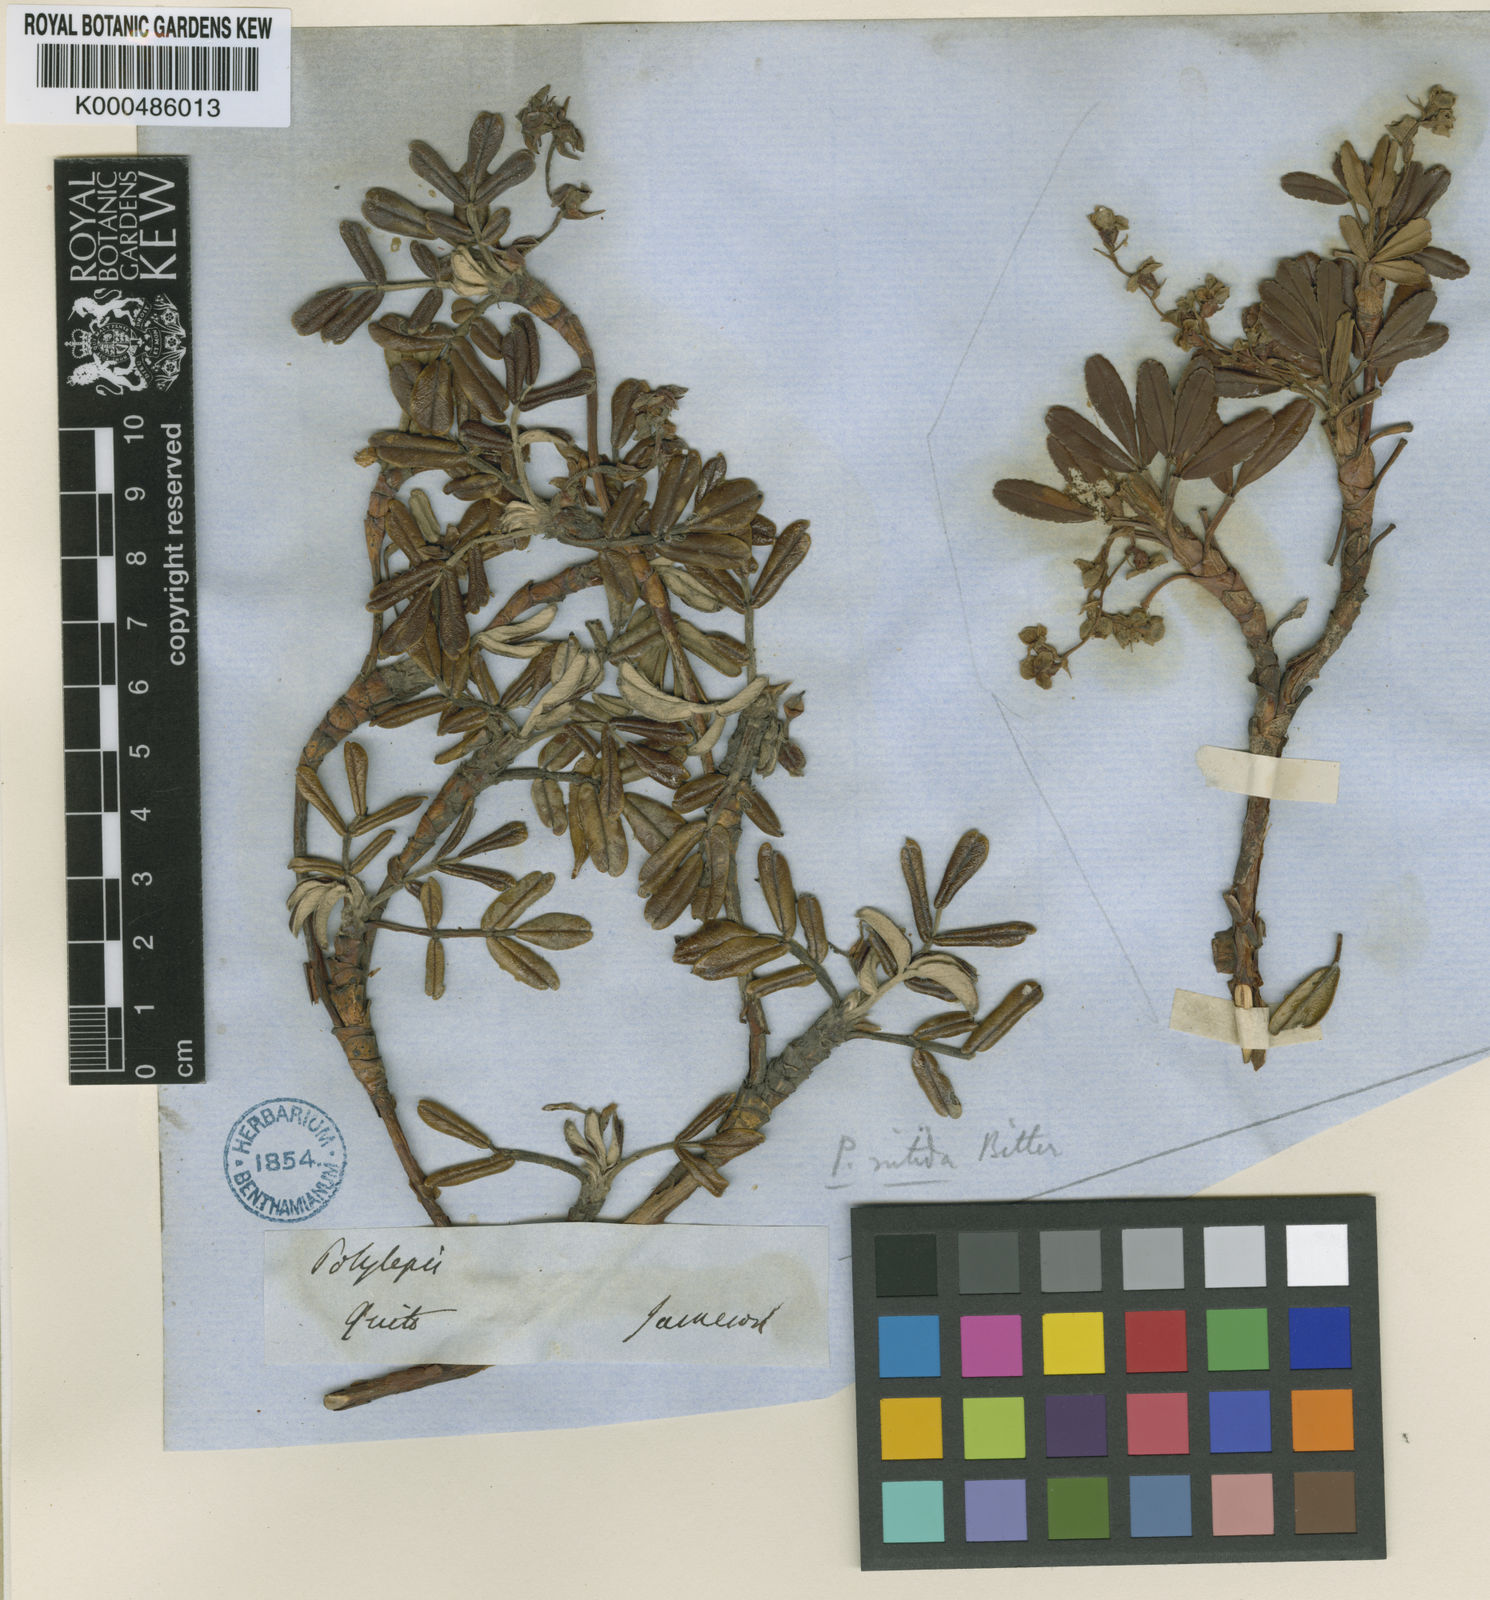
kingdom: Plantae
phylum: Tracheophyta
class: Magnoliopsida
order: Rosales
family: Rosaceae
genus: Polylepis
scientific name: Polylepis reticulata
